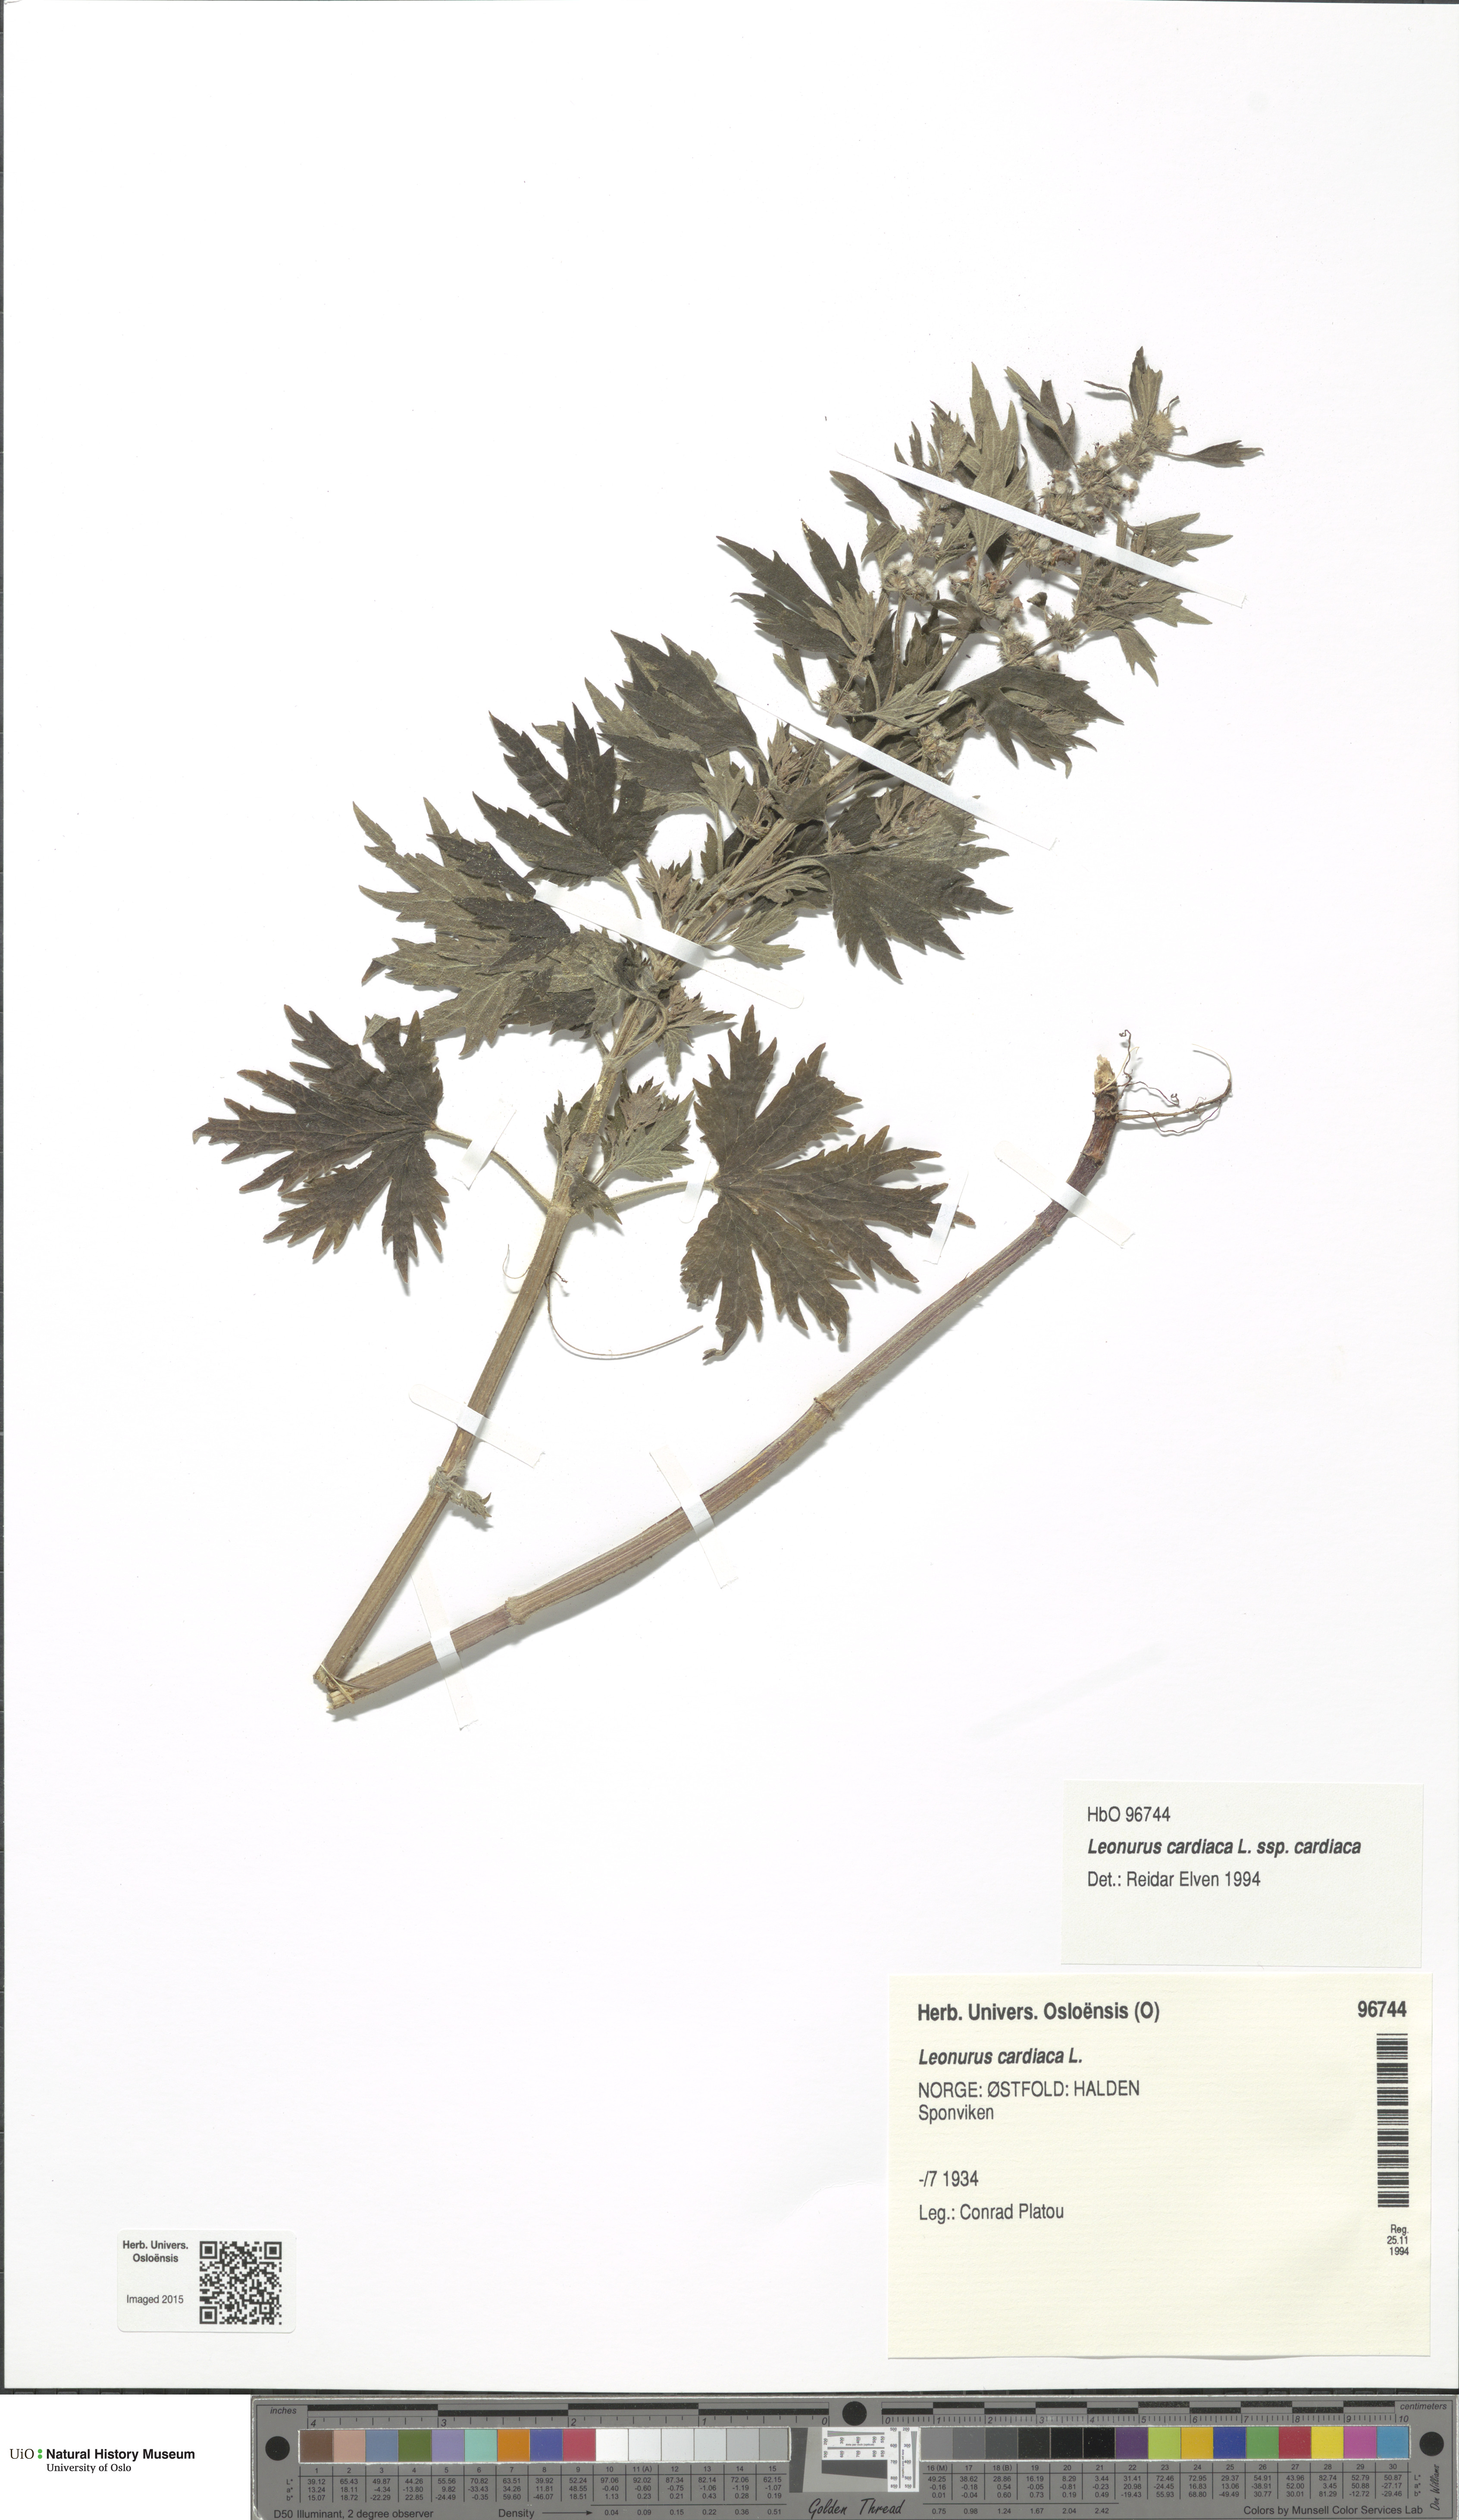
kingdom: Plantae
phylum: Tracheophyta
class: Magnoliopsida
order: Lamiales
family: Lamiaceae
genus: Leonurus
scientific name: Leonurus cardiaca
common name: Motherwort
